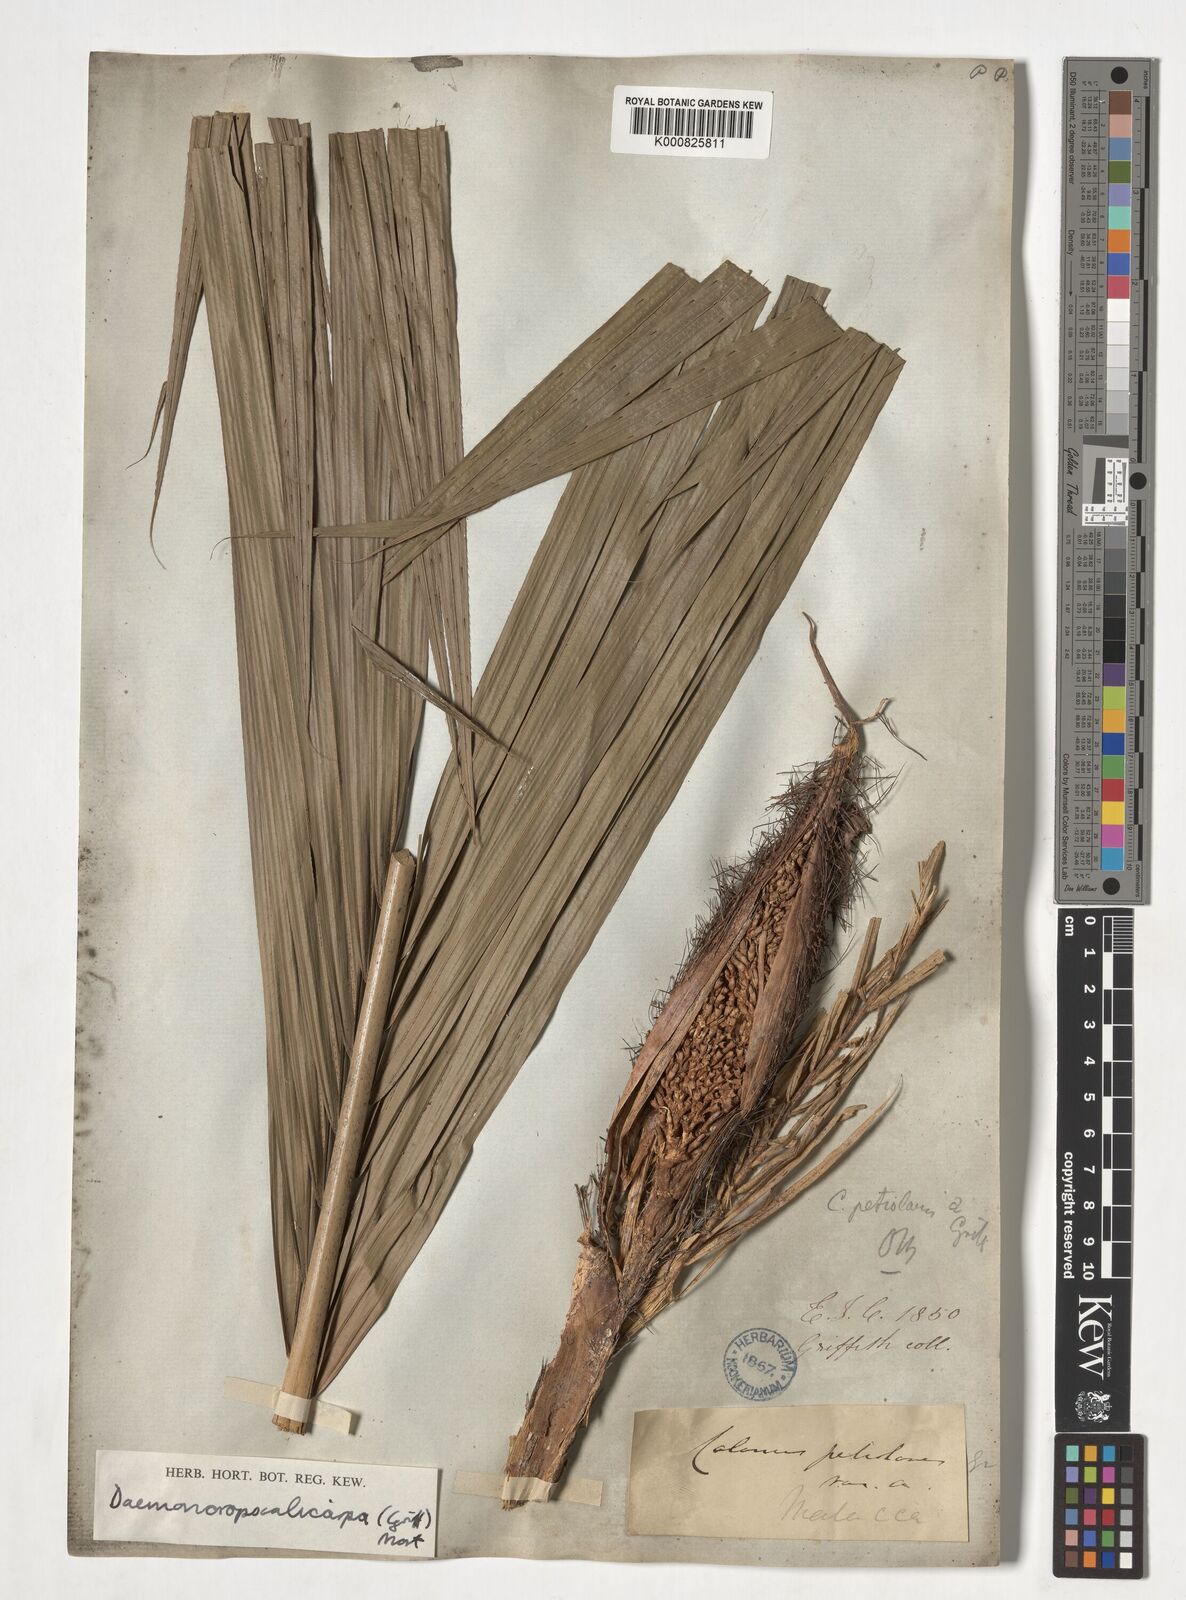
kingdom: Plantae
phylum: Tracheophyta
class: Liliopsida
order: Arecales
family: Arecaceae
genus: Calamus
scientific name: Calamus calicarpus
